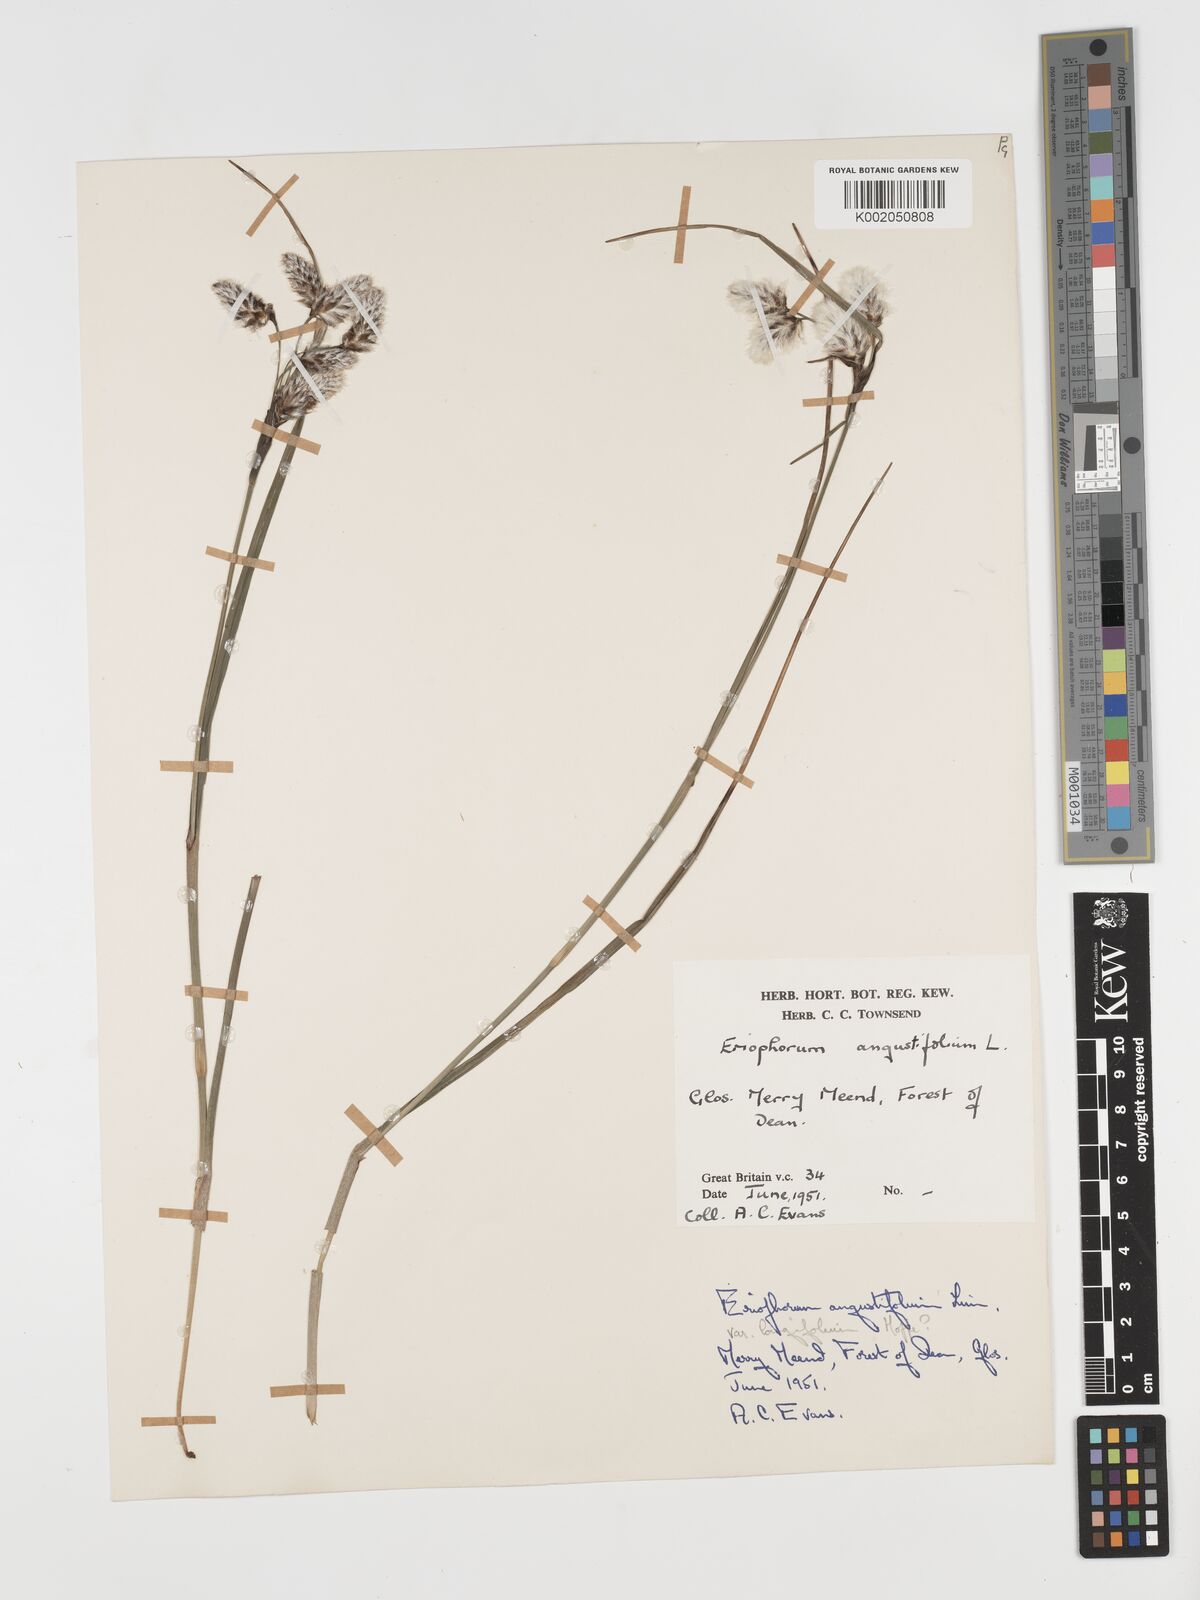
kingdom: Plantae
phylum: Tracheophyta
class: Liliopsida
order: Poales
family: Cyperaceae
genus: Eriophorum
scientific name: Eriophorum angustifolium
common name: Common cottongrass
